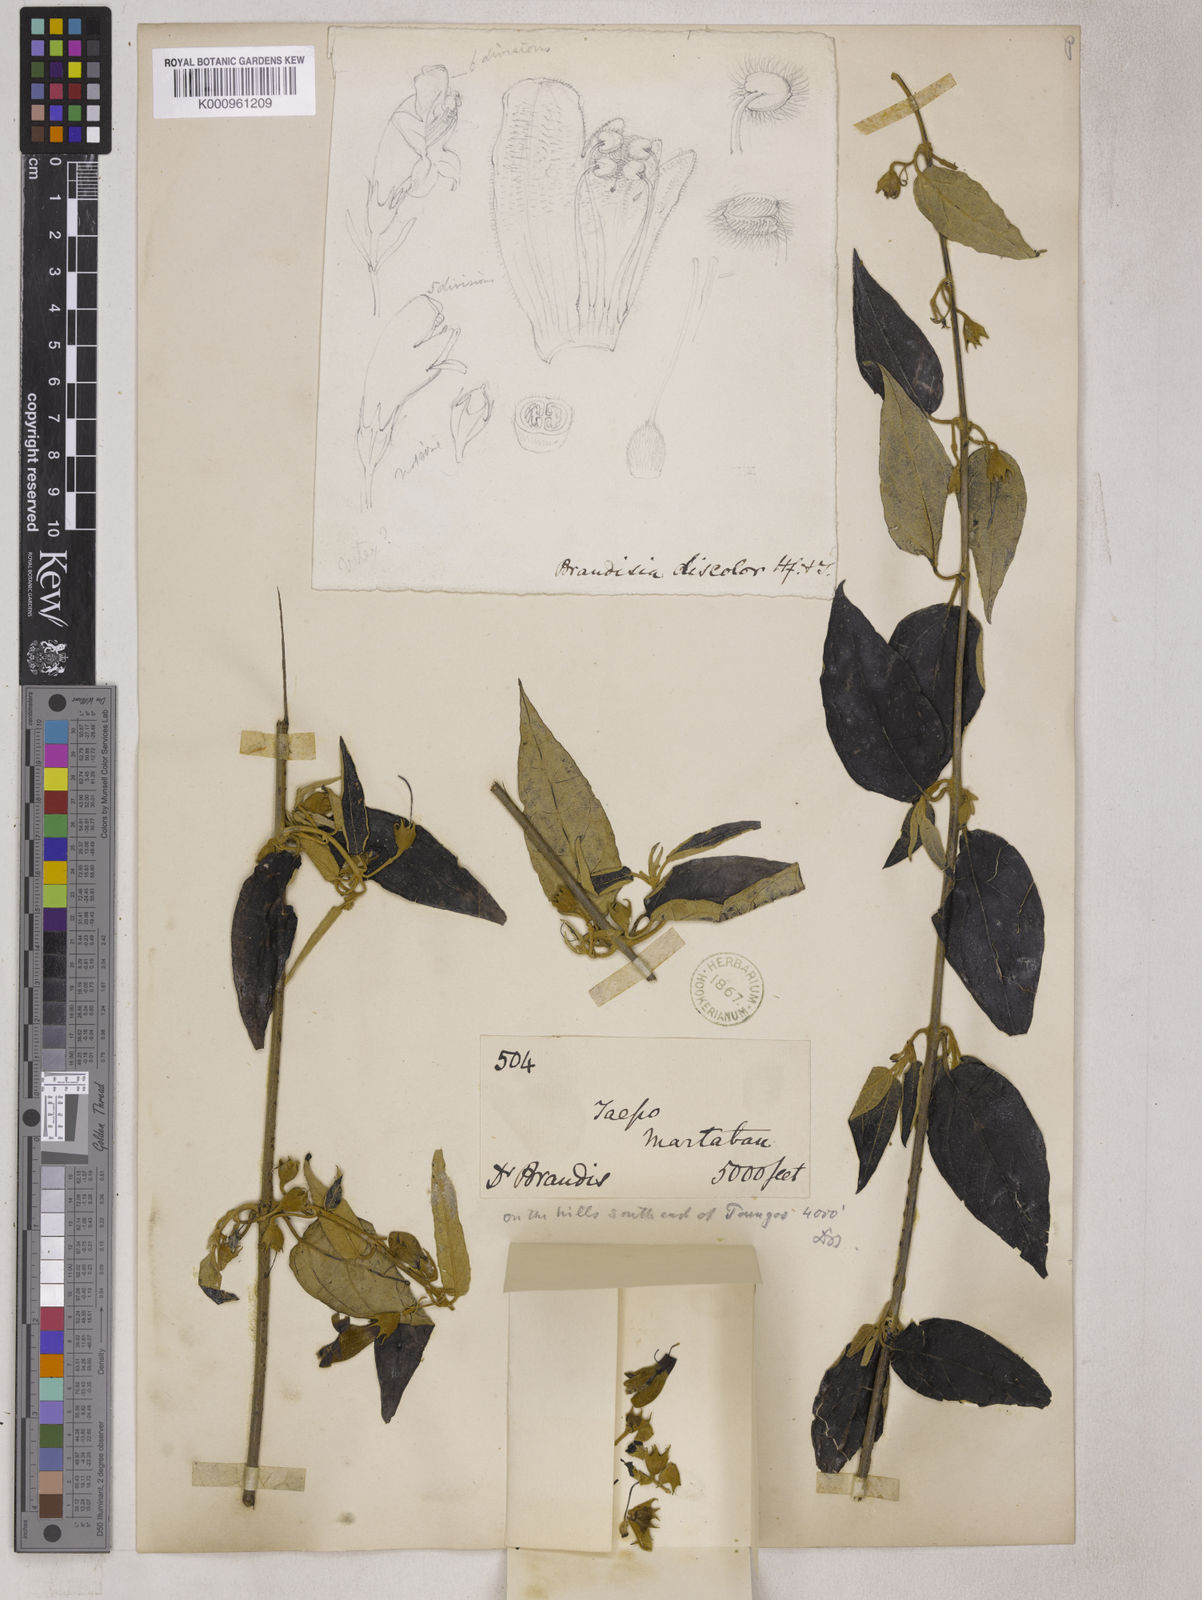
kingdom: Plantae
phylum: Tracheophyta
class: Magnoliopsida
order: Lamiales
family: Orobanchaceae
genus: Brandisia
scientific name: Brandisia discolor
